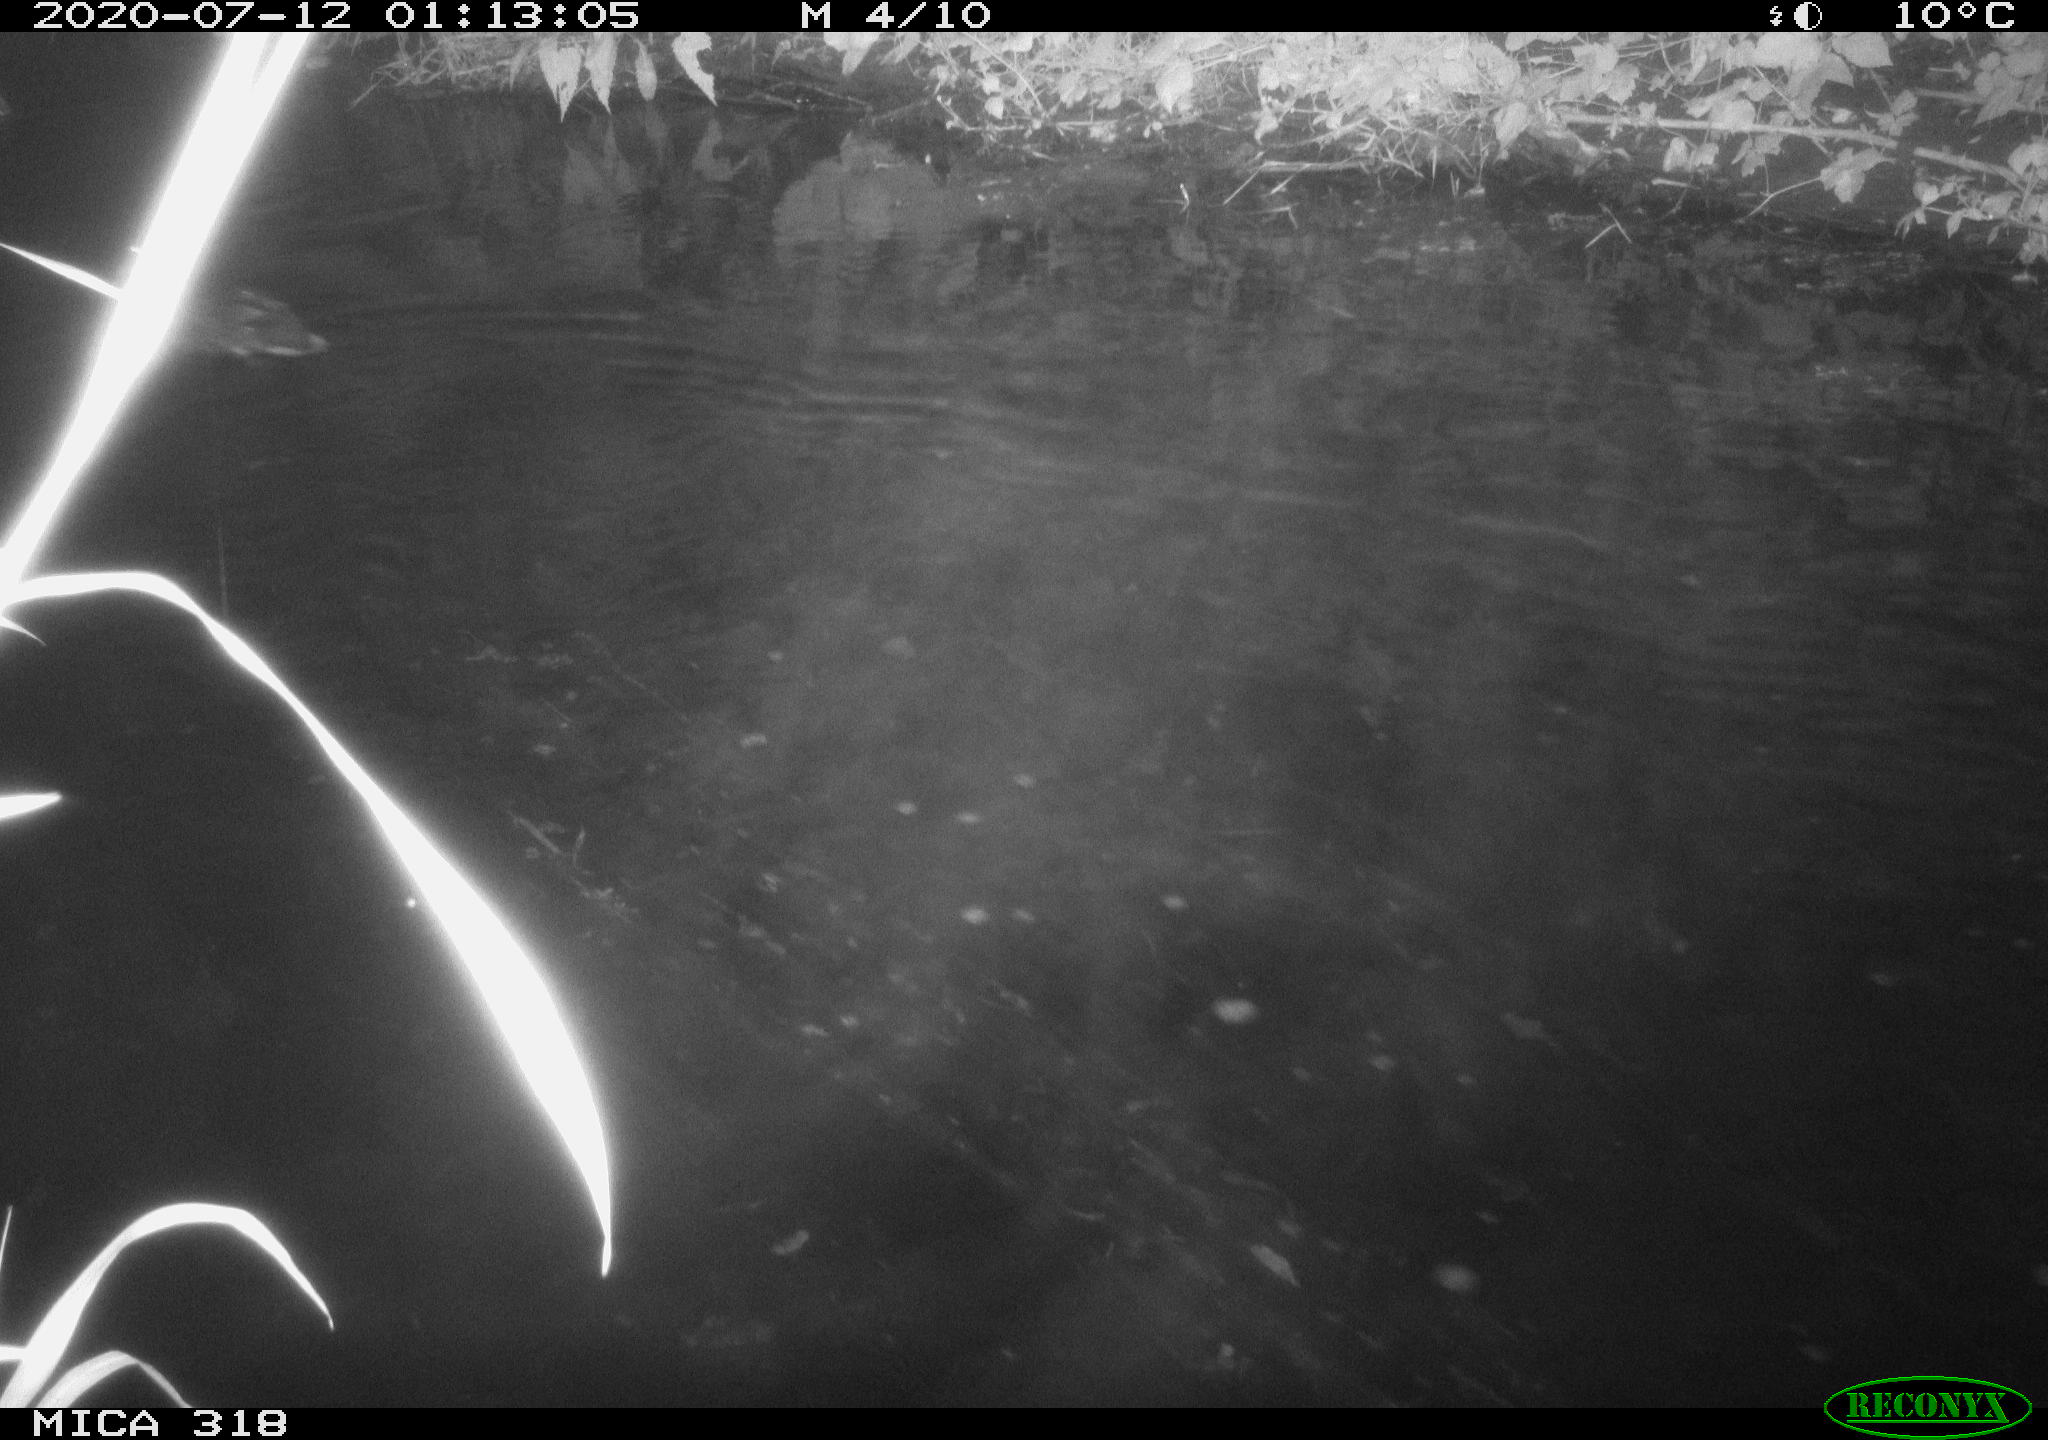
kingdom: Animalia
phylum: Chordata
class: Aves
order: Anseriformes
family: Anatidae
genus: Mareca
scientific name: Mareca strepera
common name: Gadwall
